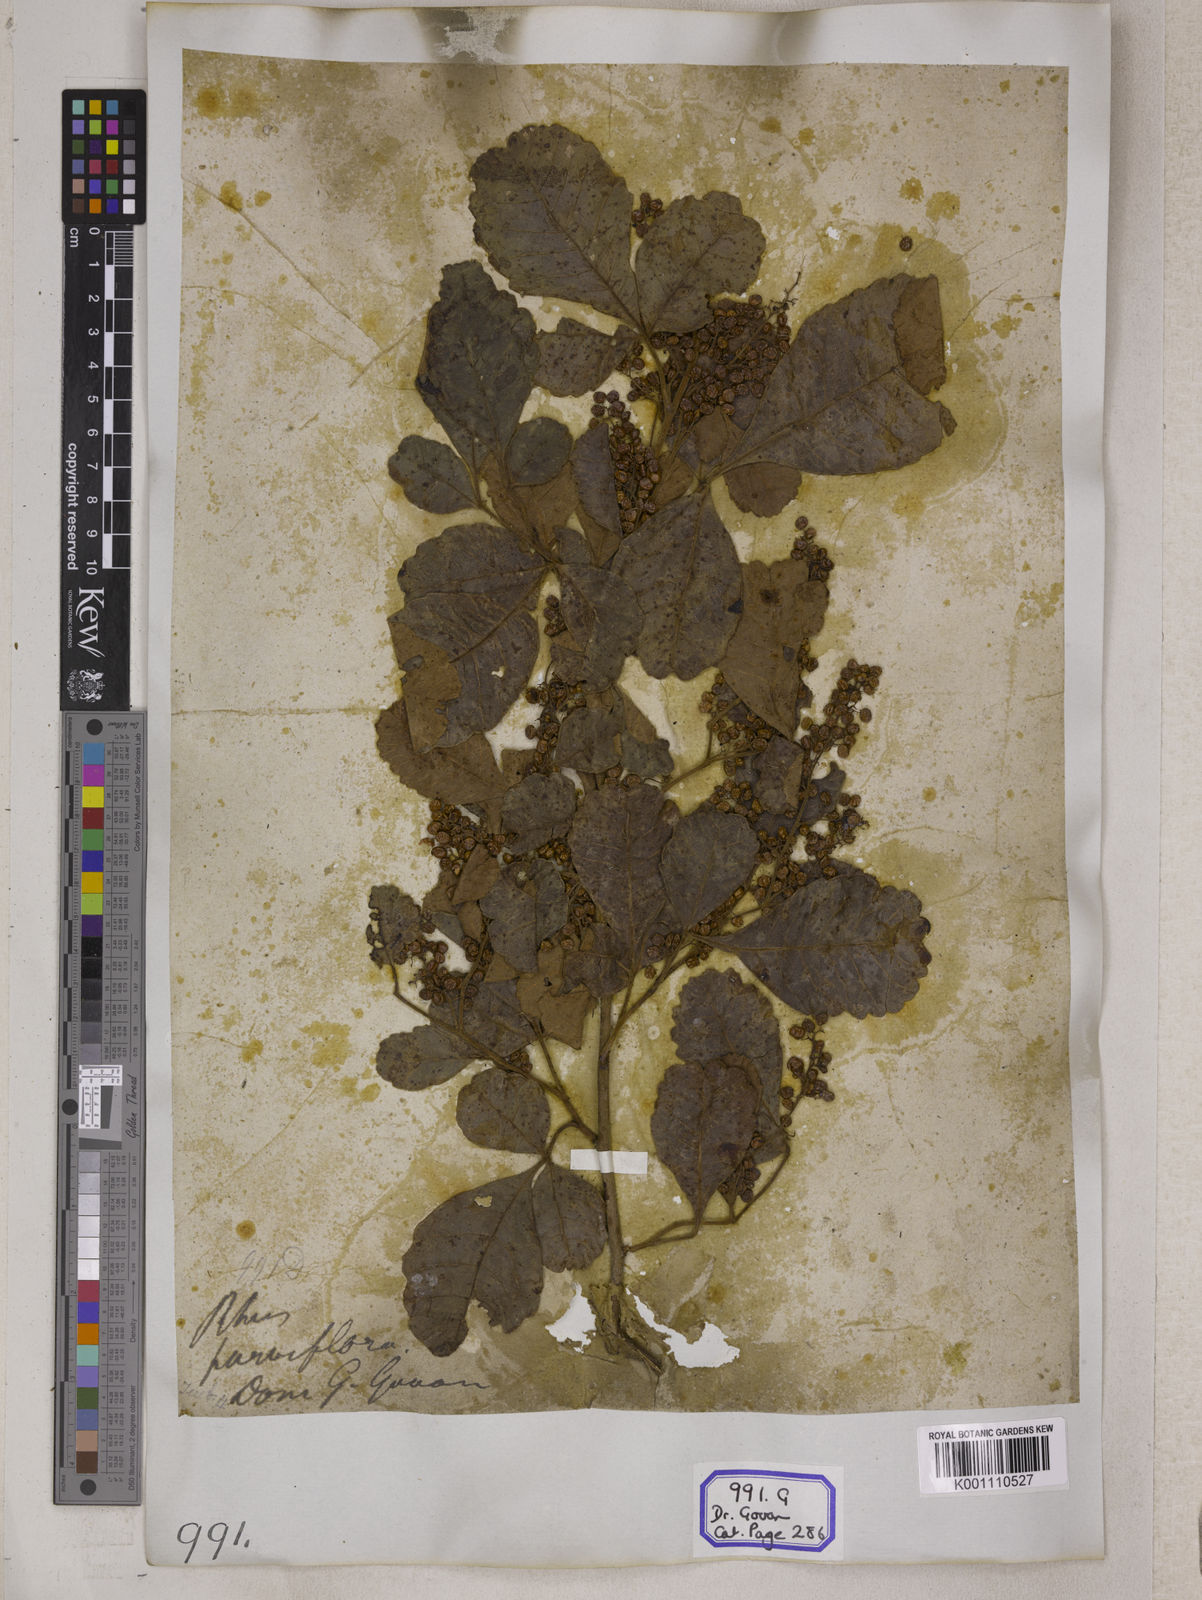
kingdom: Plantae
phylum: Tracheophyta
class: Magnoliopsida
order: Sapindales
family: Anacardiaceae
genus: Searsia
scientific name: Searsia parviflora
